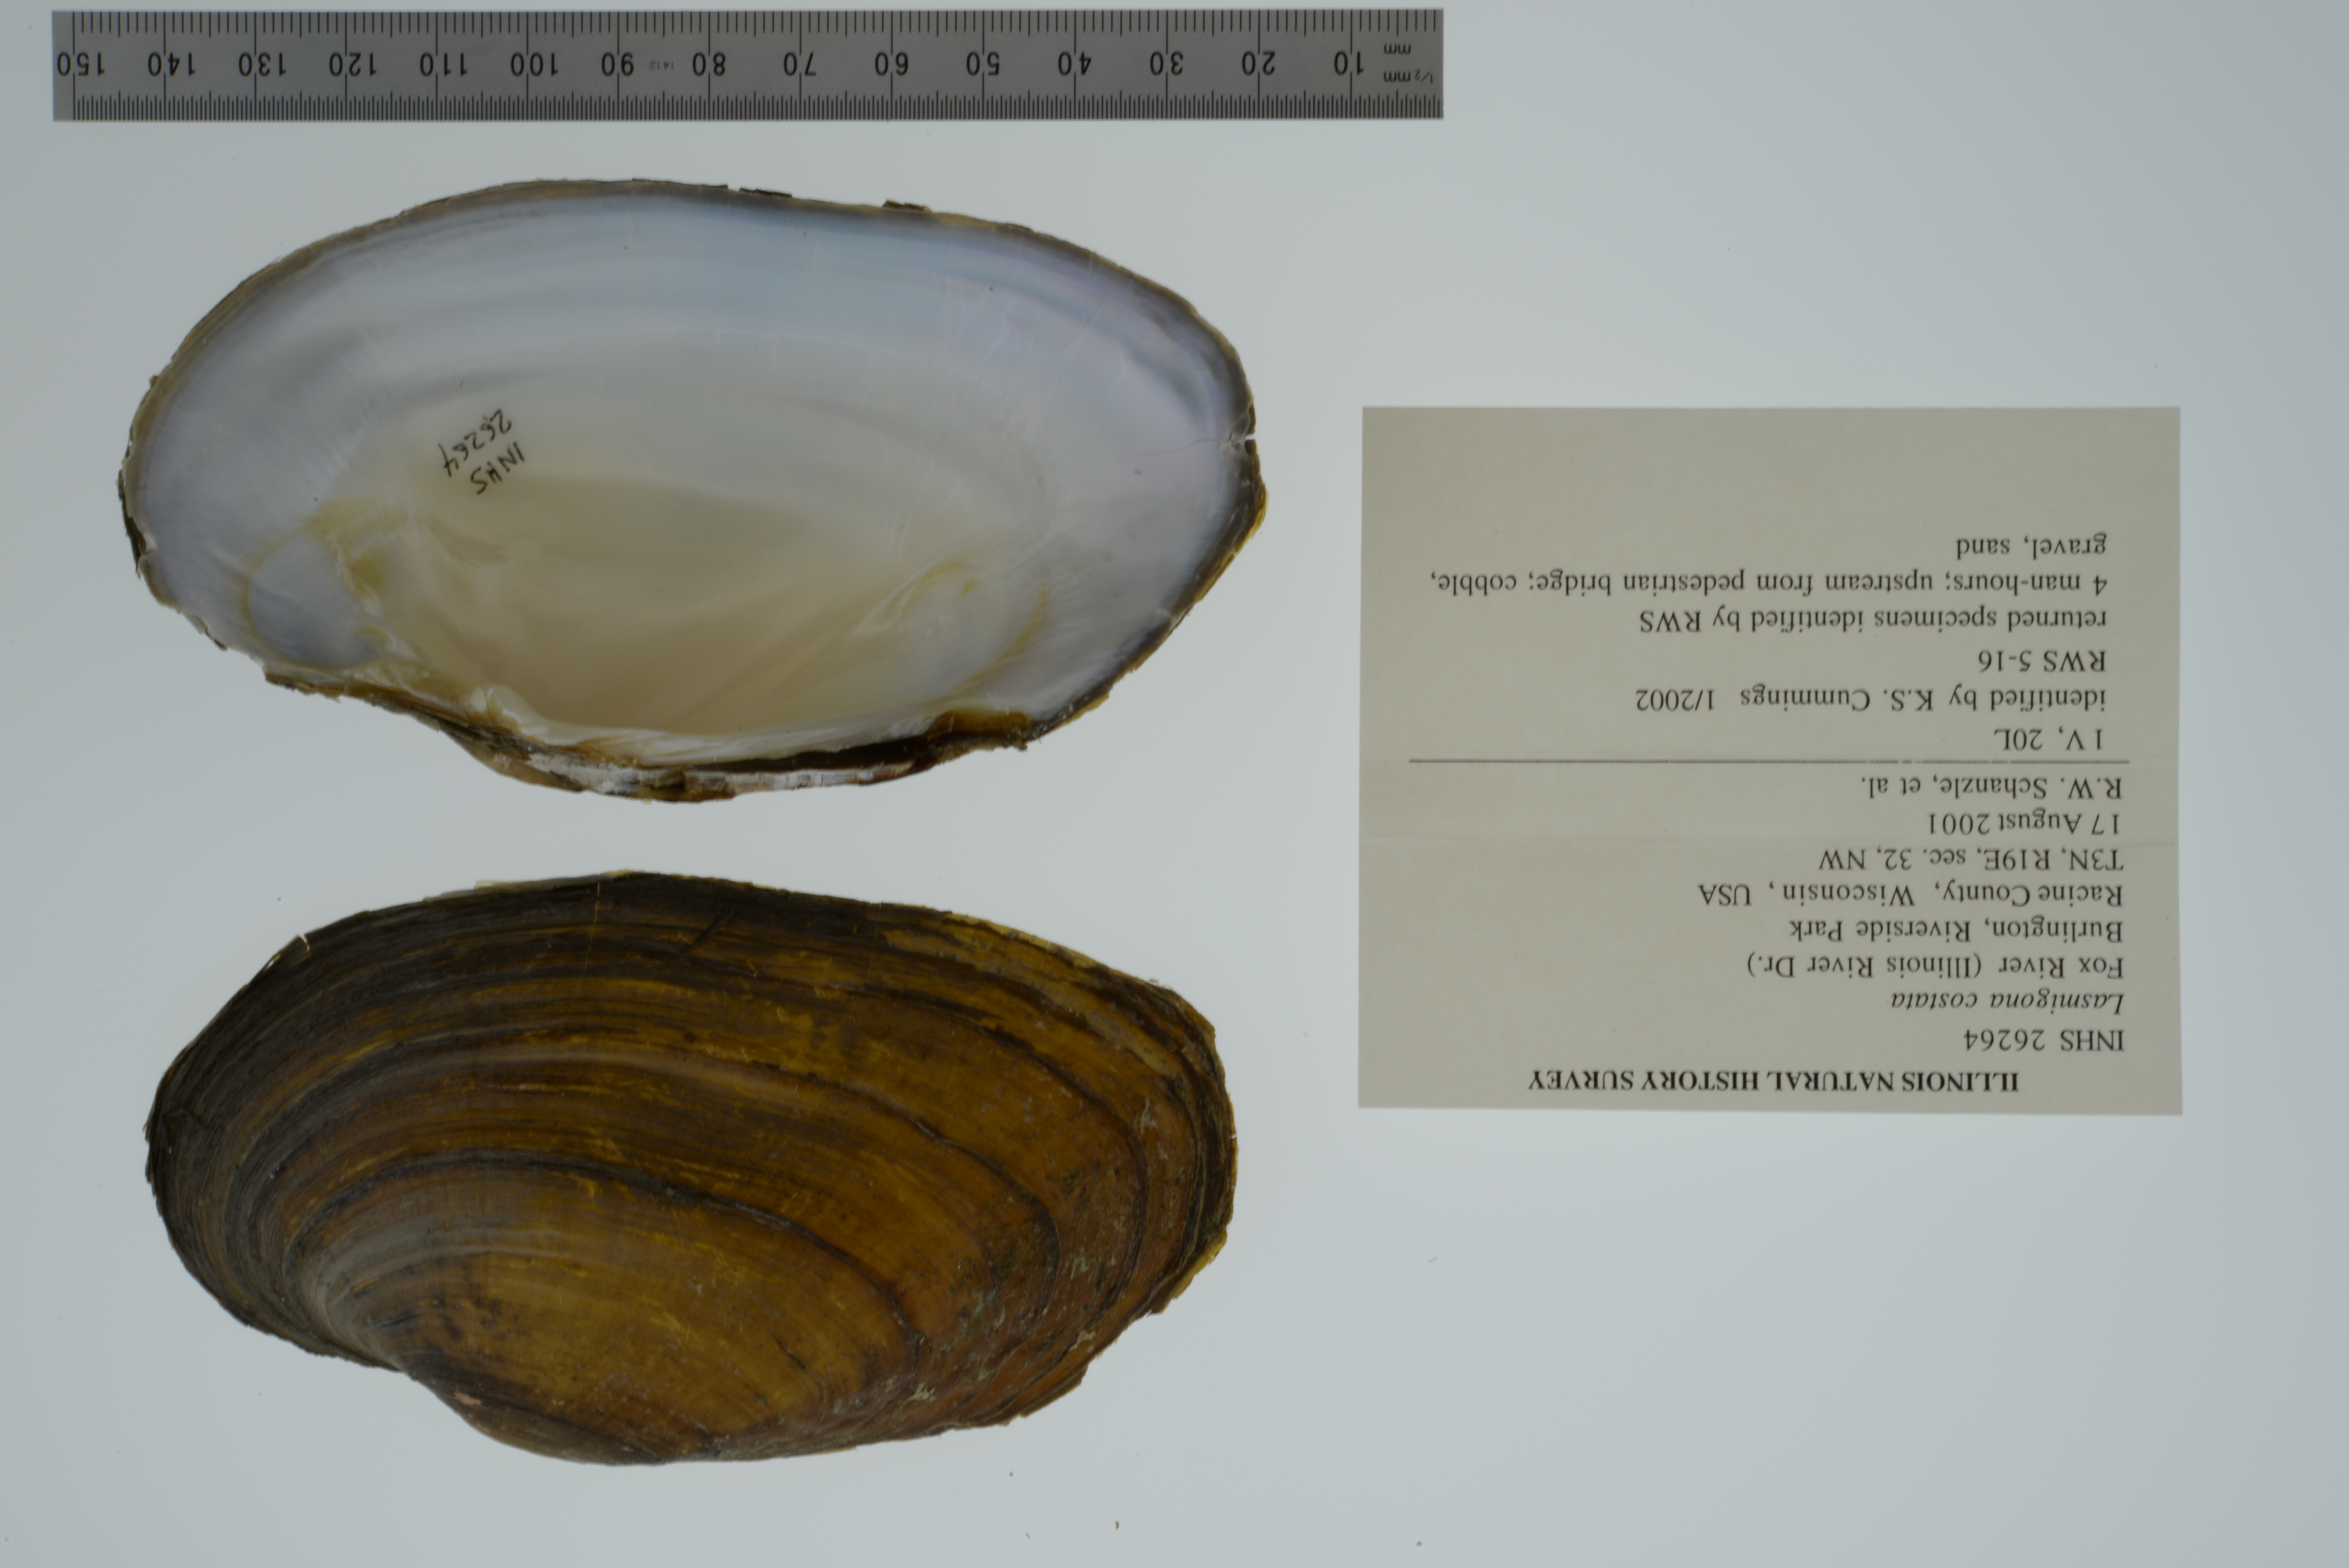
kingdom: Animalia
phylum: Mollusca
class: Bivalvia
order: Unionida
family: Unionidae
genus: Lasmigona
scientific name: Lasmigona costata
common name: Flutedshell
